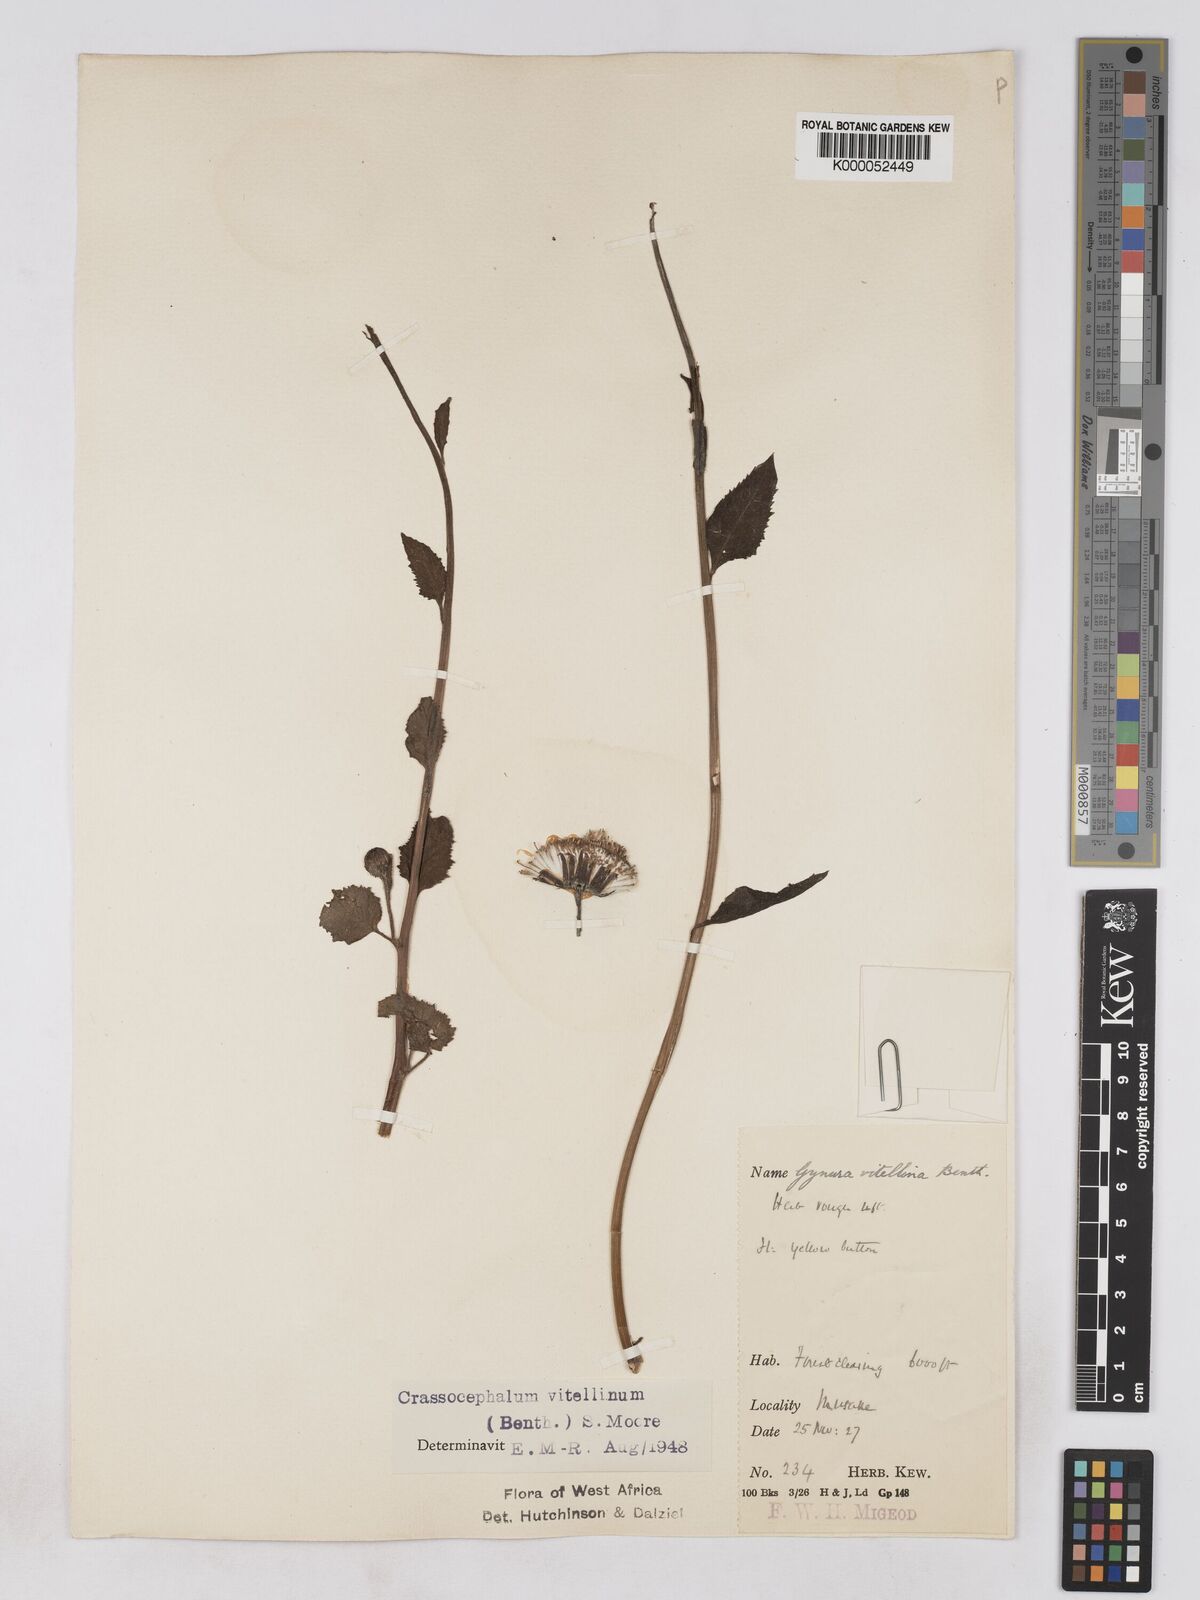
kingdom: Plantae
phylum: Tracheophyta
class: Magnoliopsida
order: Asterales
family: Asteraceae
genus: Crassocephalum
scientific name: Crassocephalum bougheyanum
